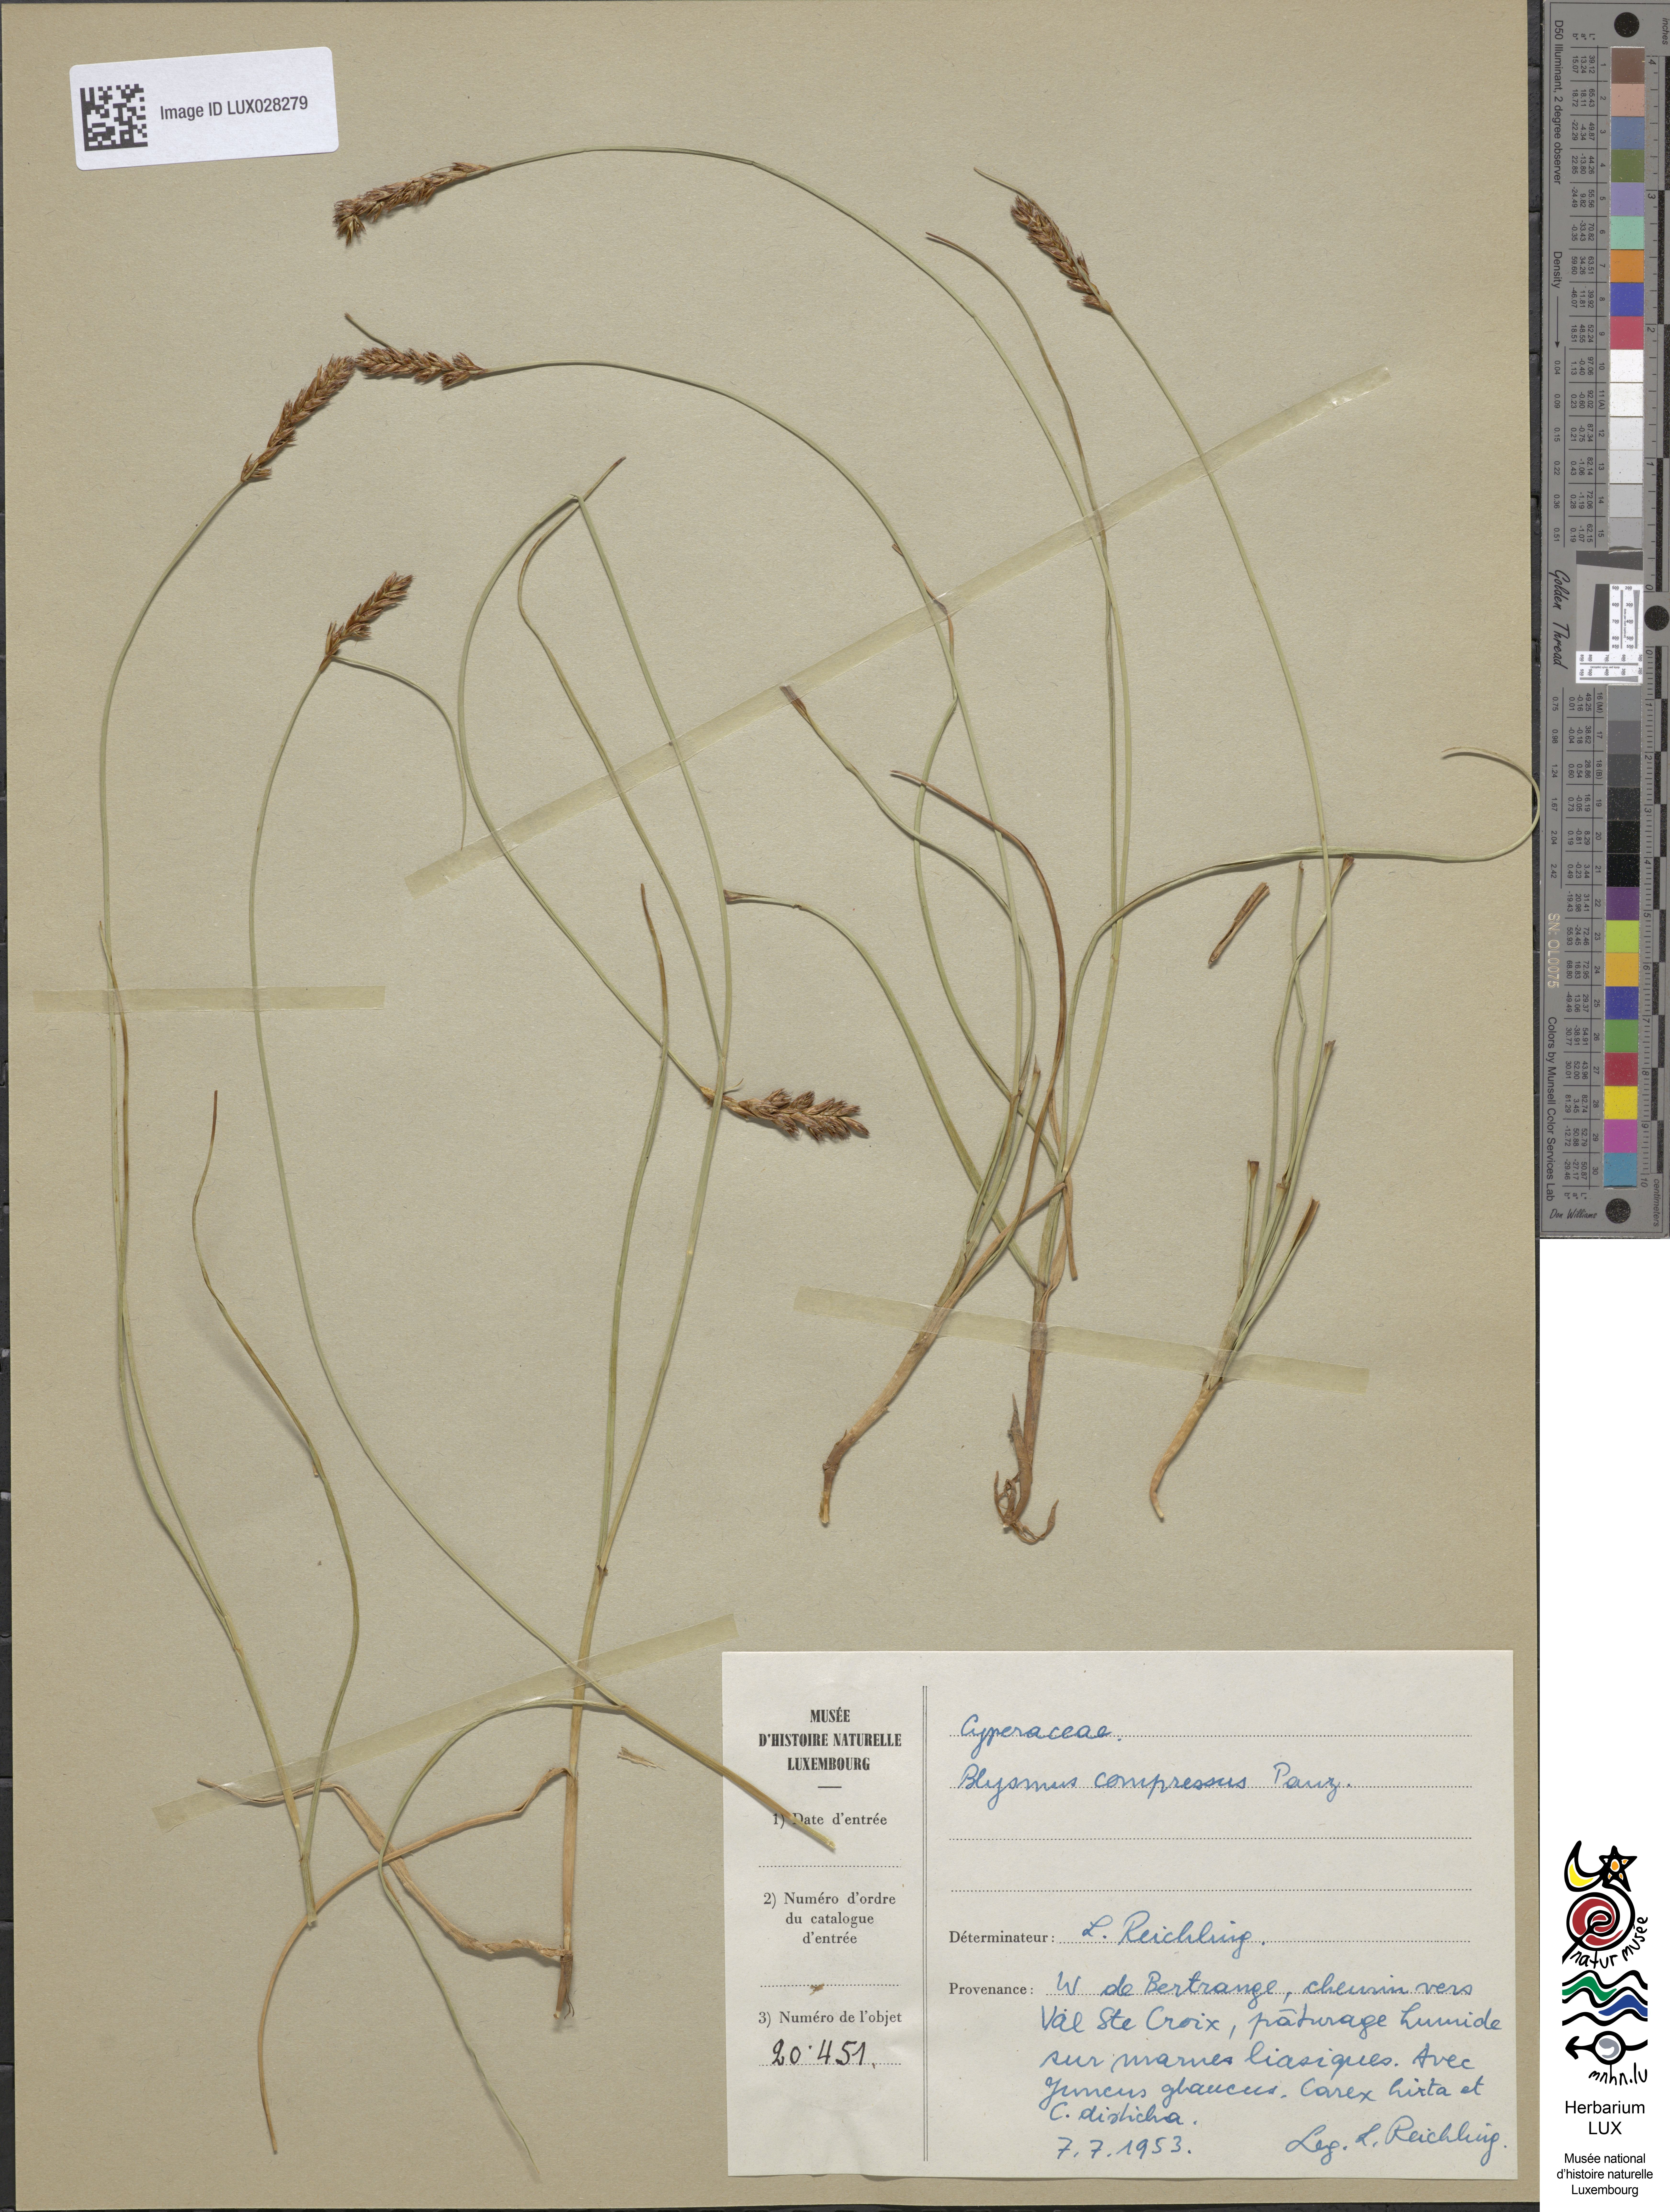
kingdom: Plantae
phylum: Tracheophyta
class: Liliopsida
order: Poales
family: Cyperaceae
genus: Blysmus
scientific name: Blysmus compressus
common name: Flat-sedge
